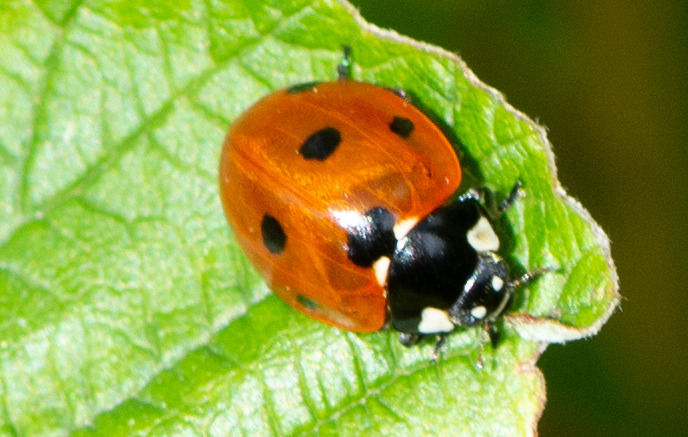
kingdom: Animalia
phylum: Arthropoda
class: Insecta
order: Coleoptera
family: Coccinellidae
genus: Coccinella
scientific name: Coccinella septempunctata
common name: Syvplettet mariehøne
